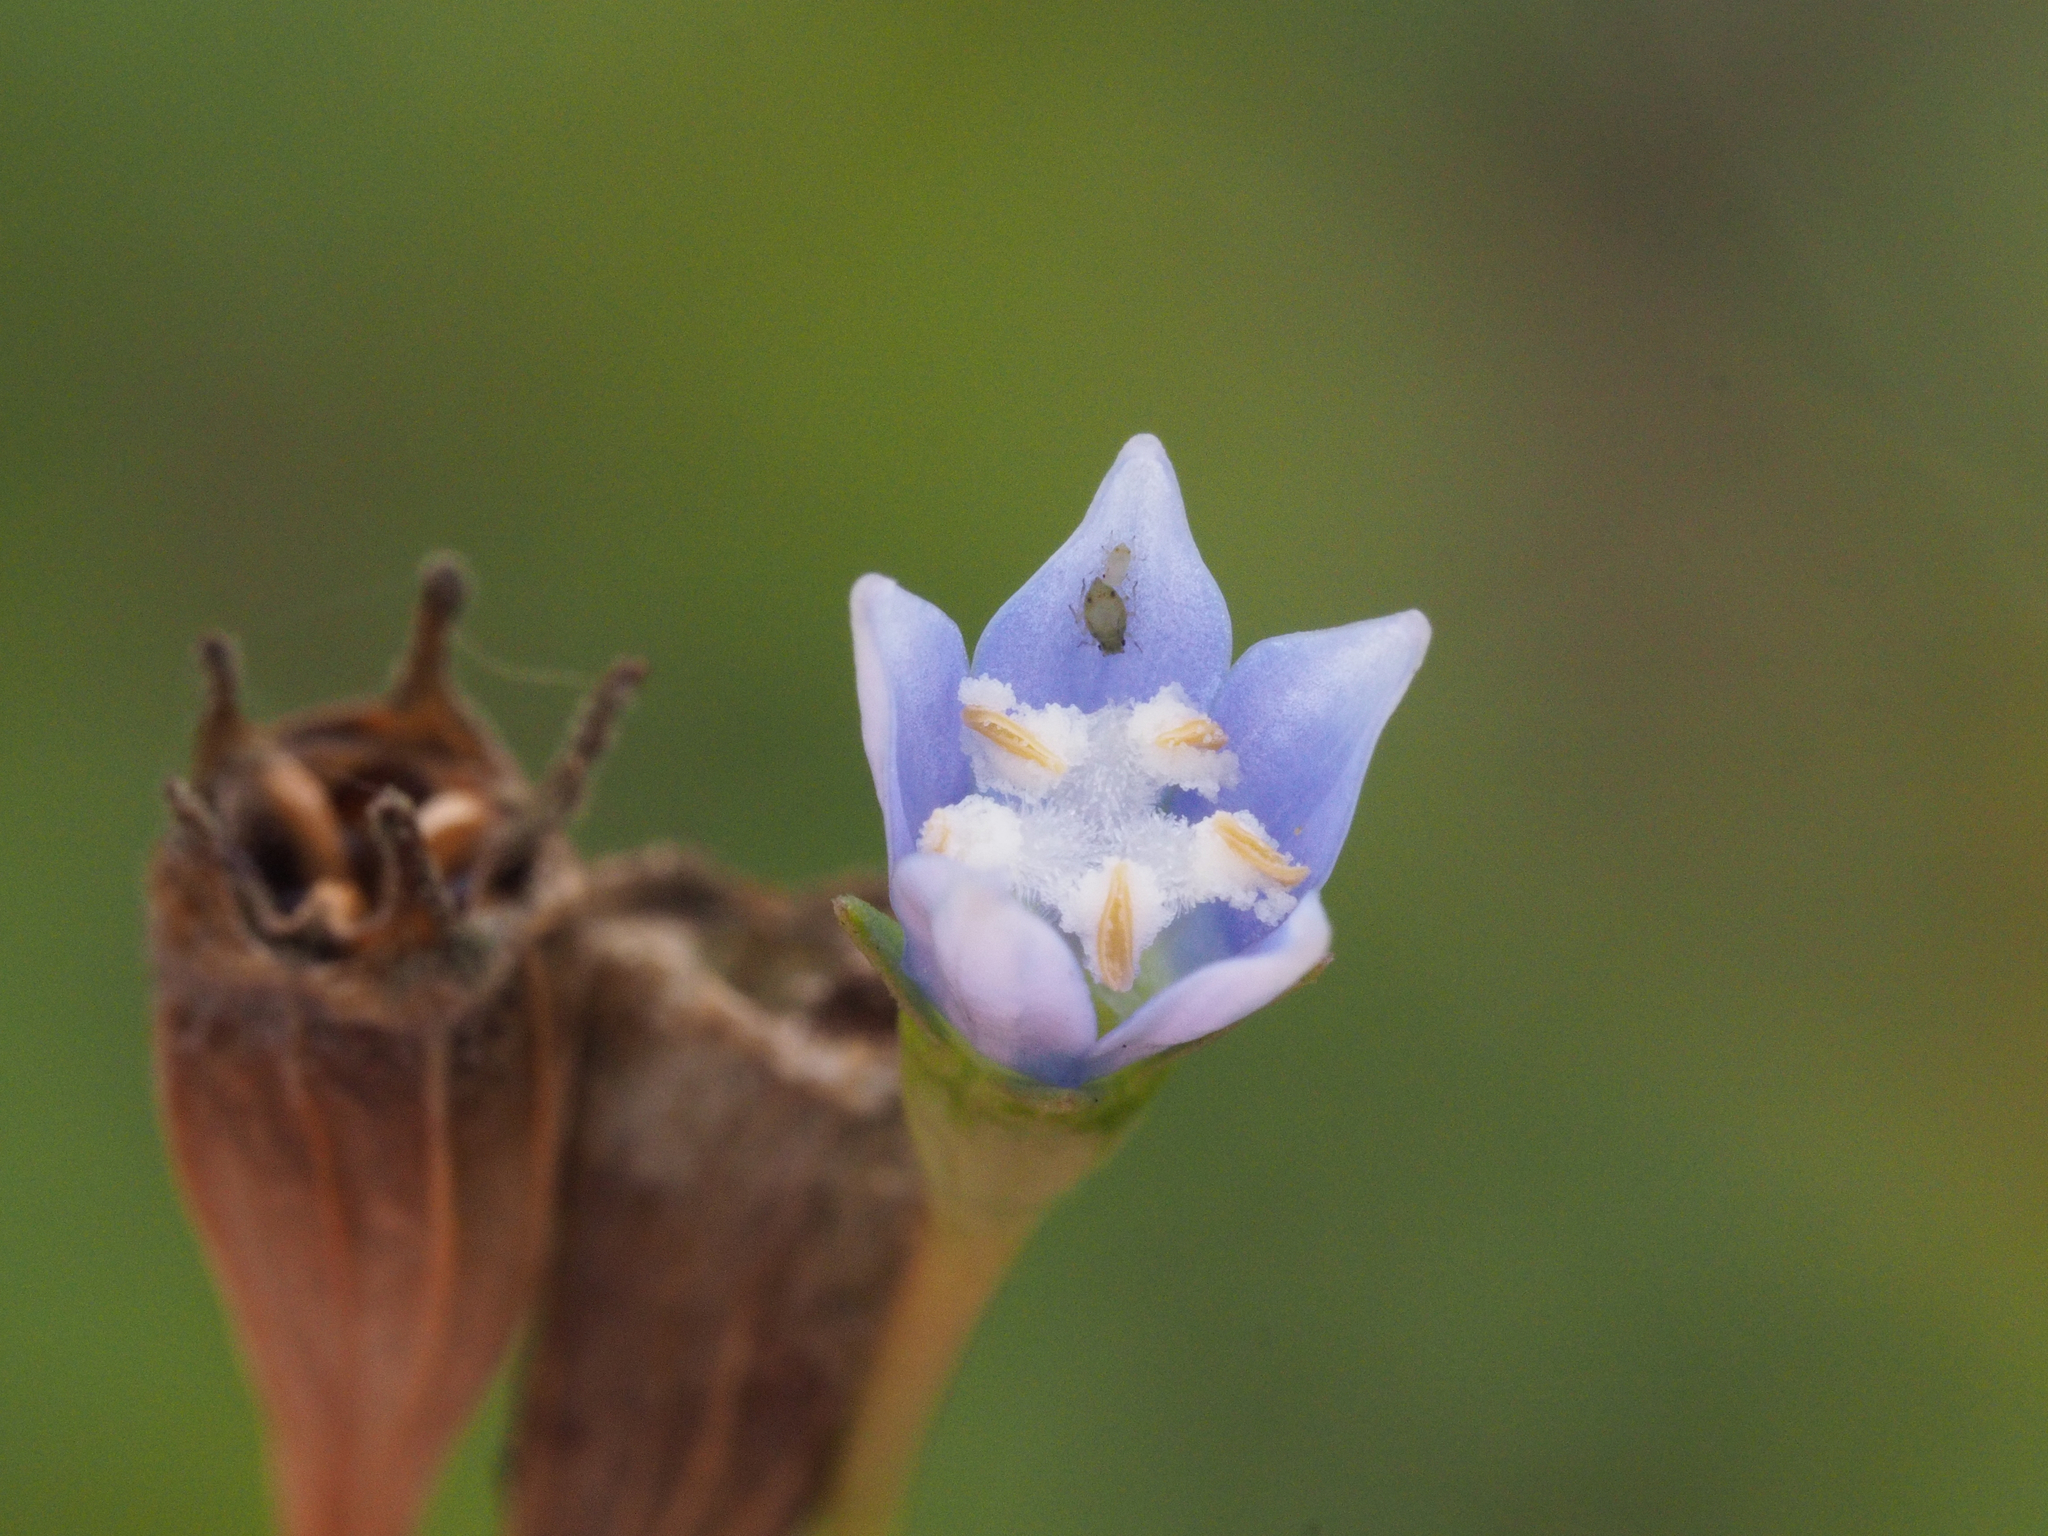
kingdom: Plantae
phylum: Tracheophyta
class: Magnoliopsida
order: Asterales
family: Campanulaceae
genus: Wahlenbergia
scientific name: Wahlenbergia marginata
